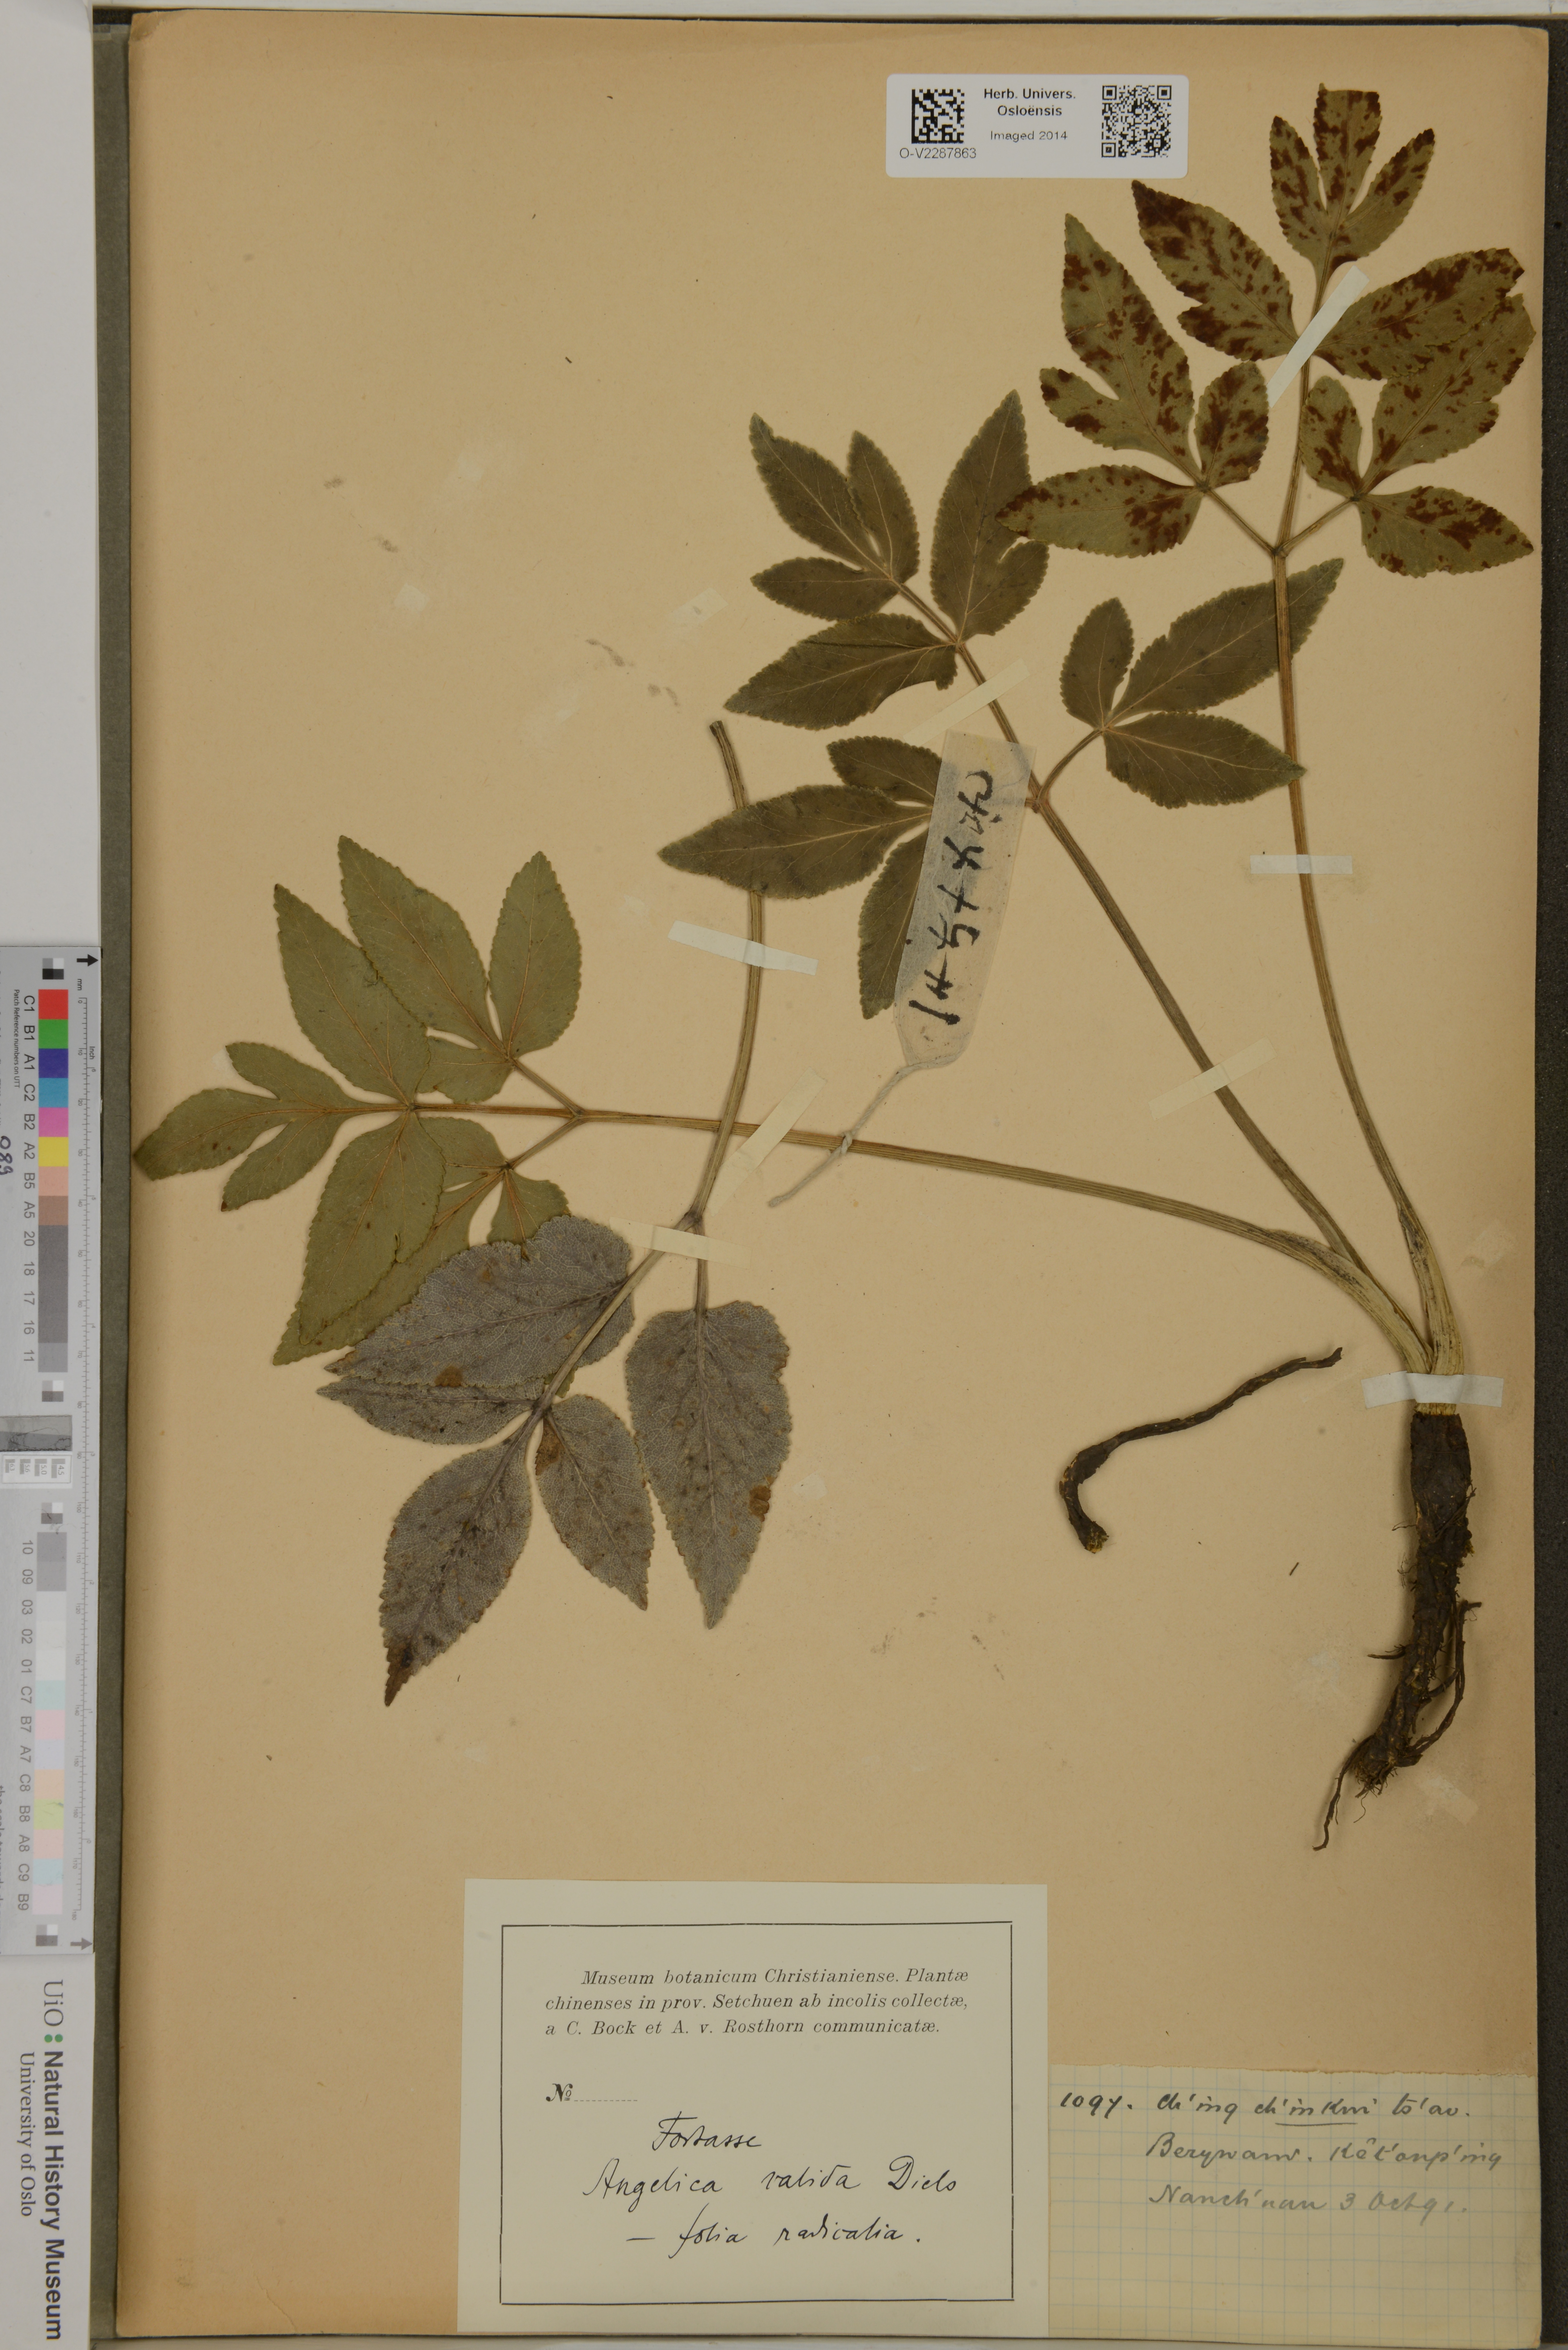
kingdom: Plantae
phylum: Tracheophyta
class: Magnoliopsida
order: Apiales
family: Apiaceae
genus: Angelica
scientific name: Angelica setchuenensis
